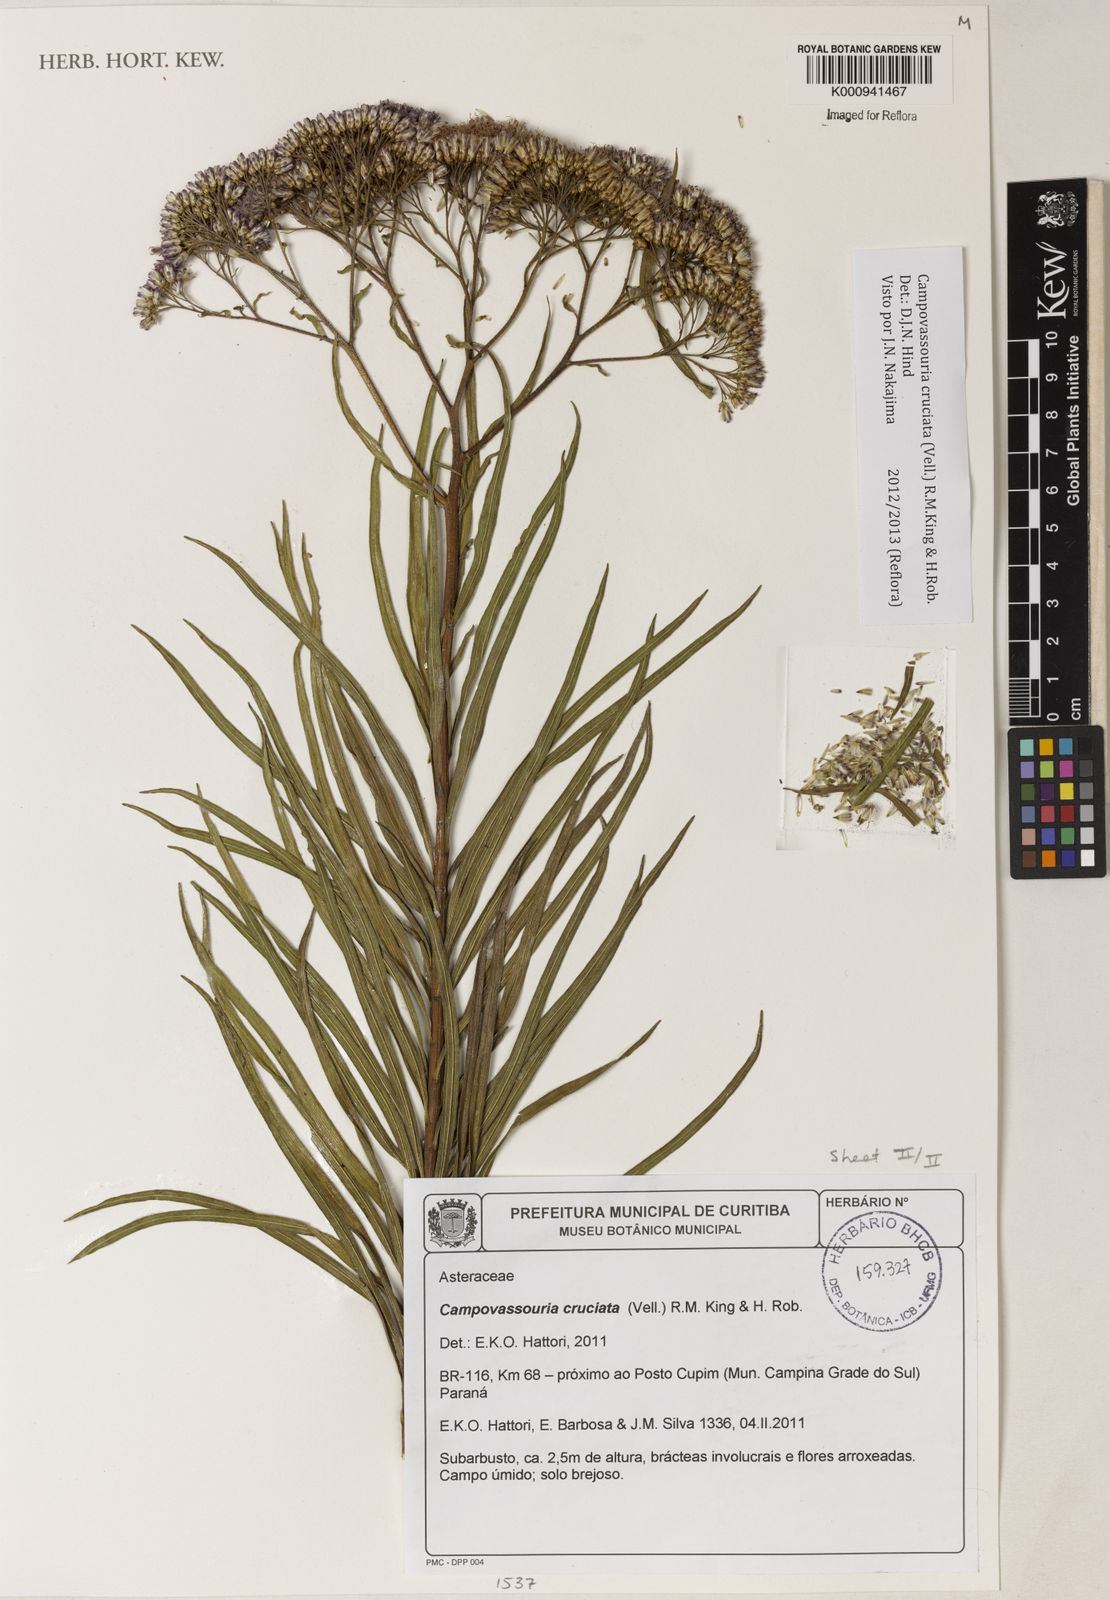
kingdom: Plantae
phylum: Tracheophyta
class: Magnoliopsida
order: Asterales
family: Asteraceae
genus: Campovassouria
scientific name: Campovassouria cruciata
